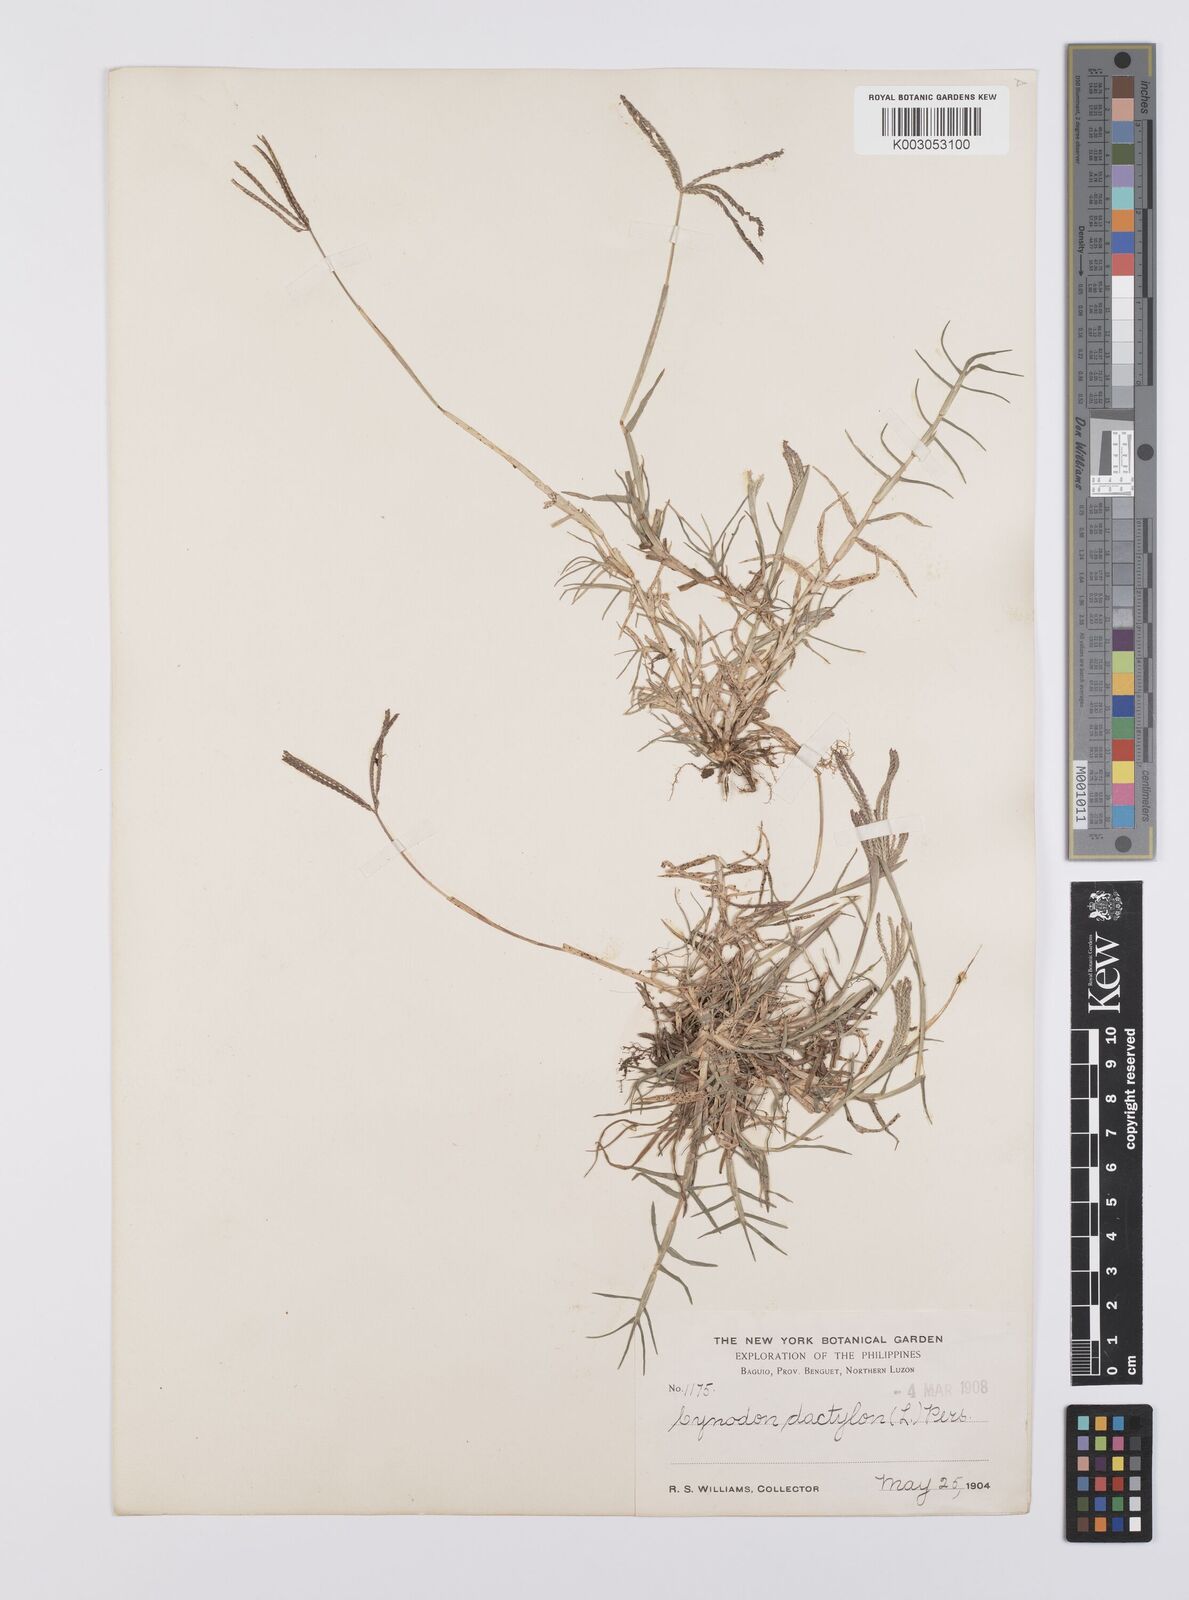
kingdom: Plantae
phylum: Tracheophyta
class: Liliopsida
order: Poales
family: Poaceae
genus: Cynodon
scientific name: Cynodon dactylon
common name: Bermuda grass
